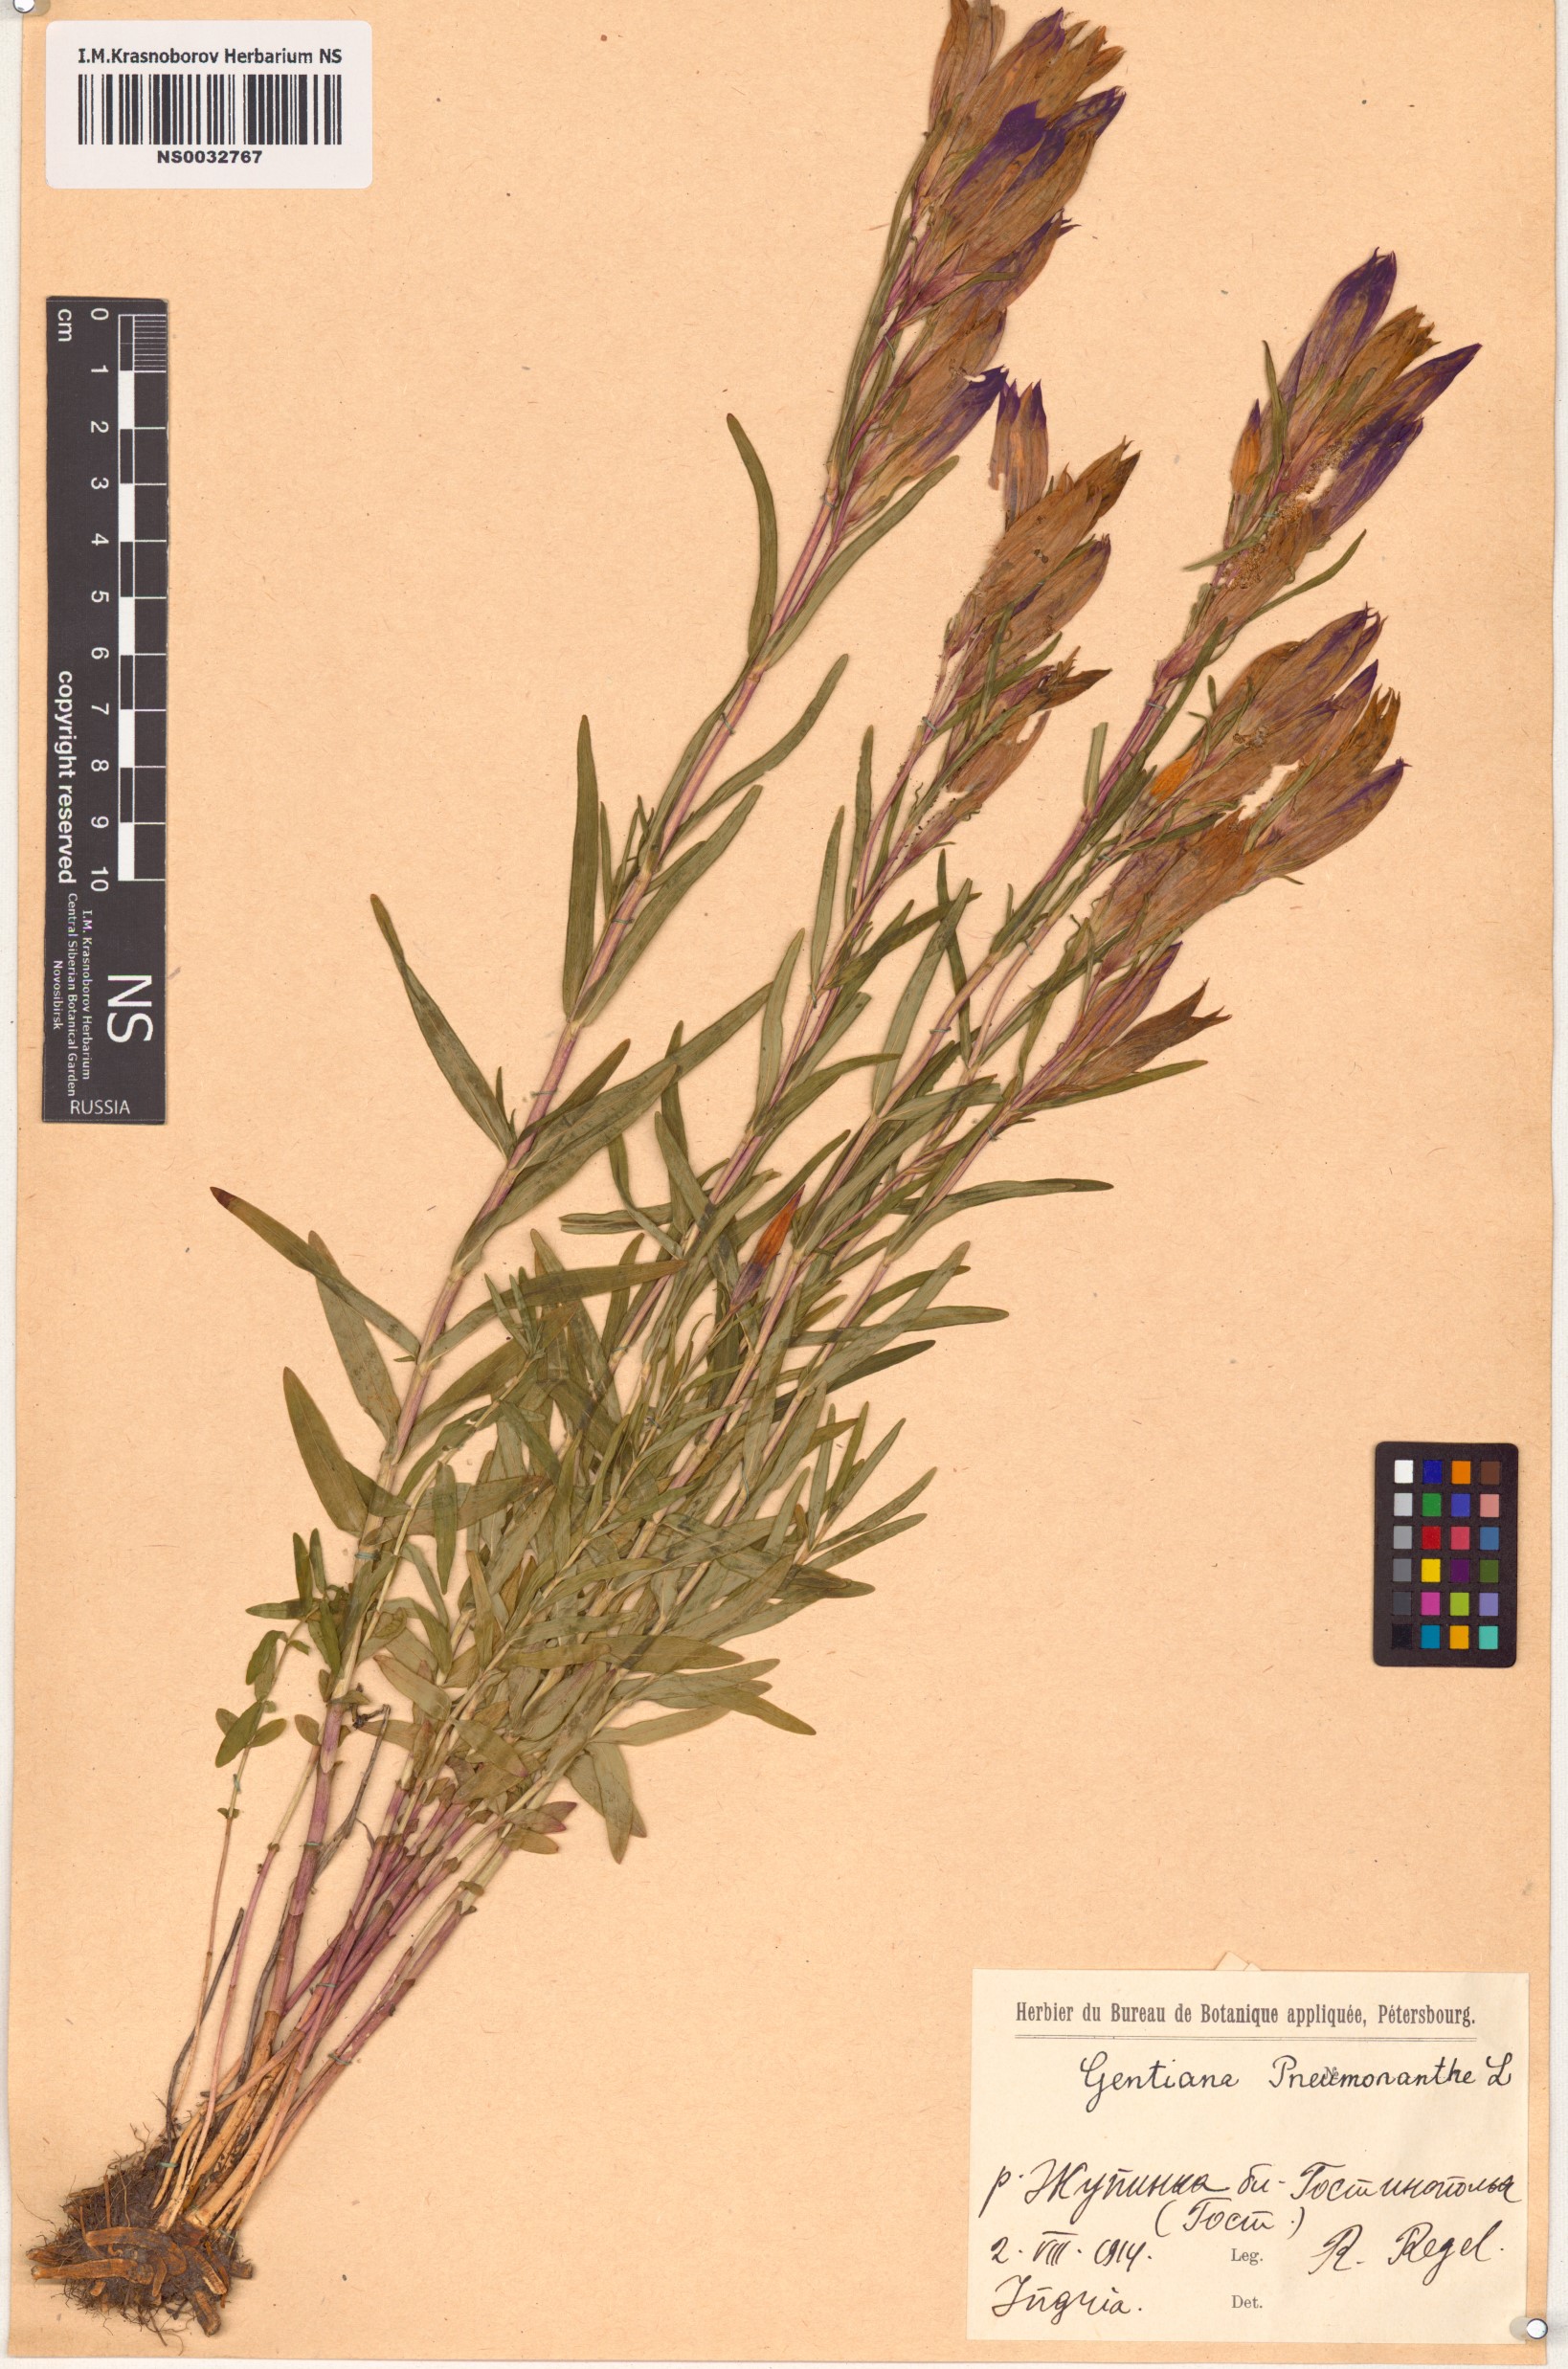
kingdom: Plantae
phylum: Tracheophyta
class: Magnoliopsida
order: Gentianales
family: Gentianaceae
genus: Gentiana
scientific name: Gentiana pneumonanthe
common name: Marsh gentian
